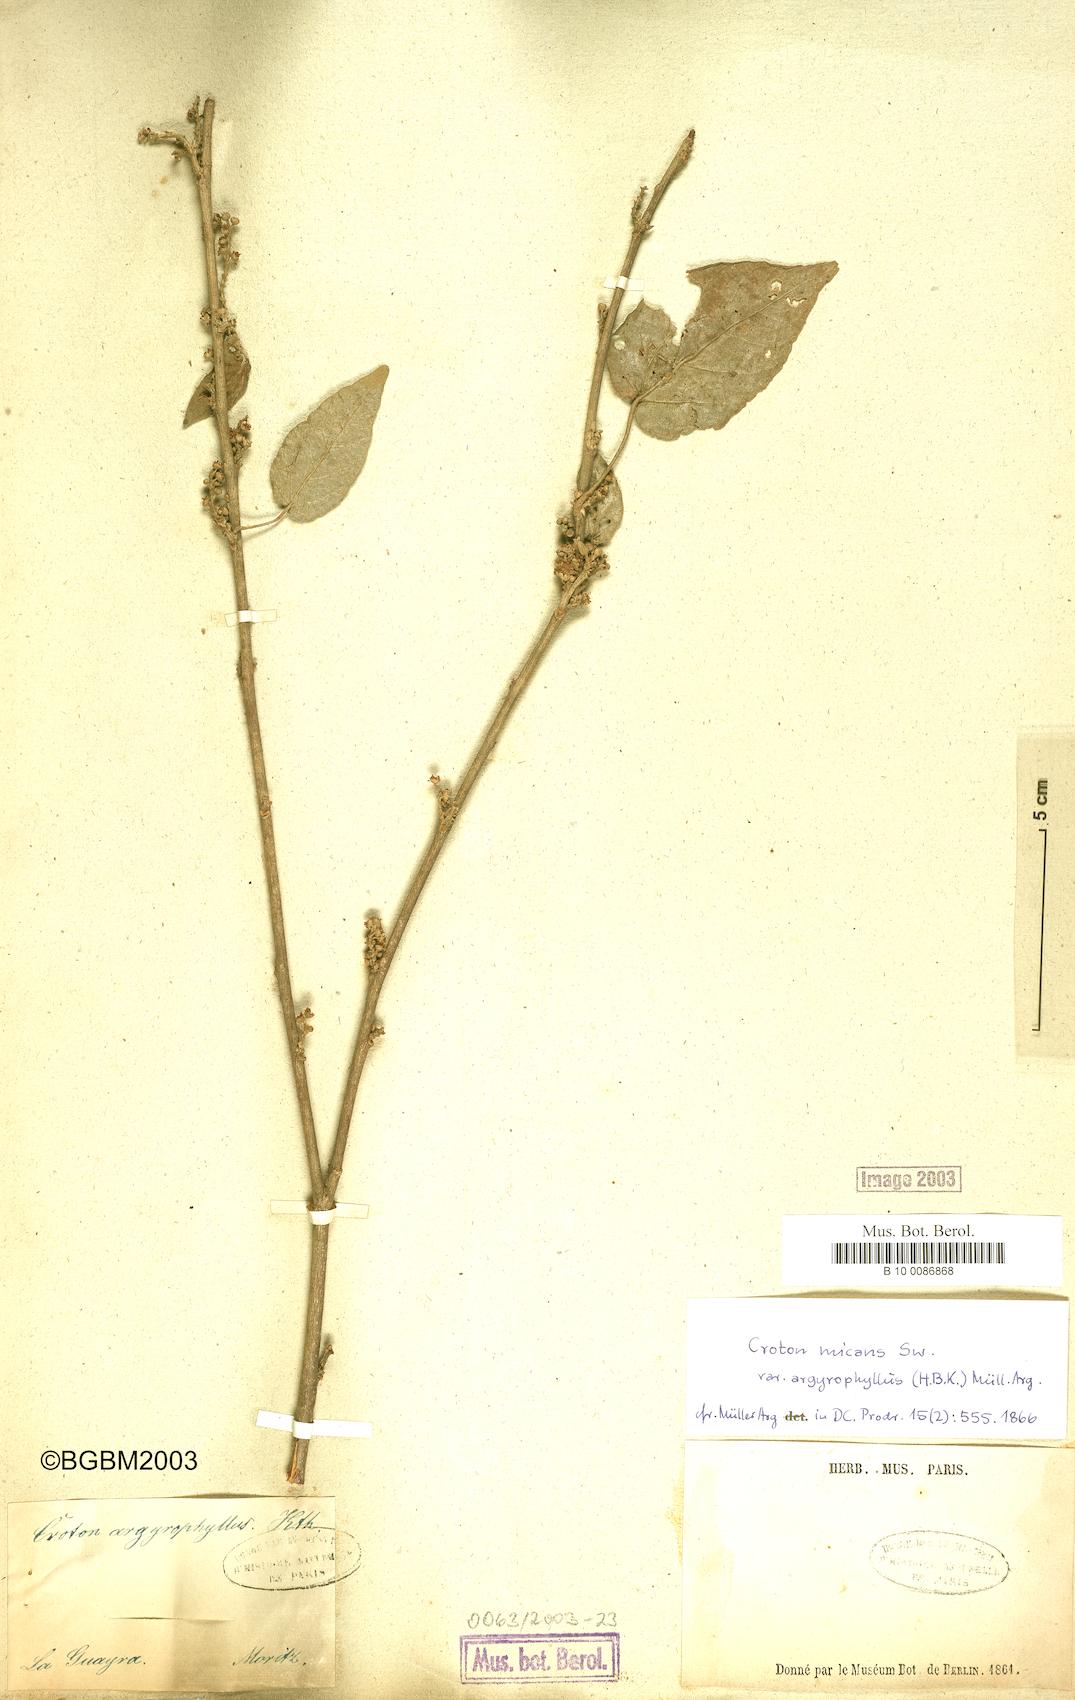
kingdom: Plantae
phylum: Tracheophyta
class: Magnoliopsida
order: Malpighiales
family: Euphorbiaceae
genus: Croton
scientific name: Croton argyrophyllus
